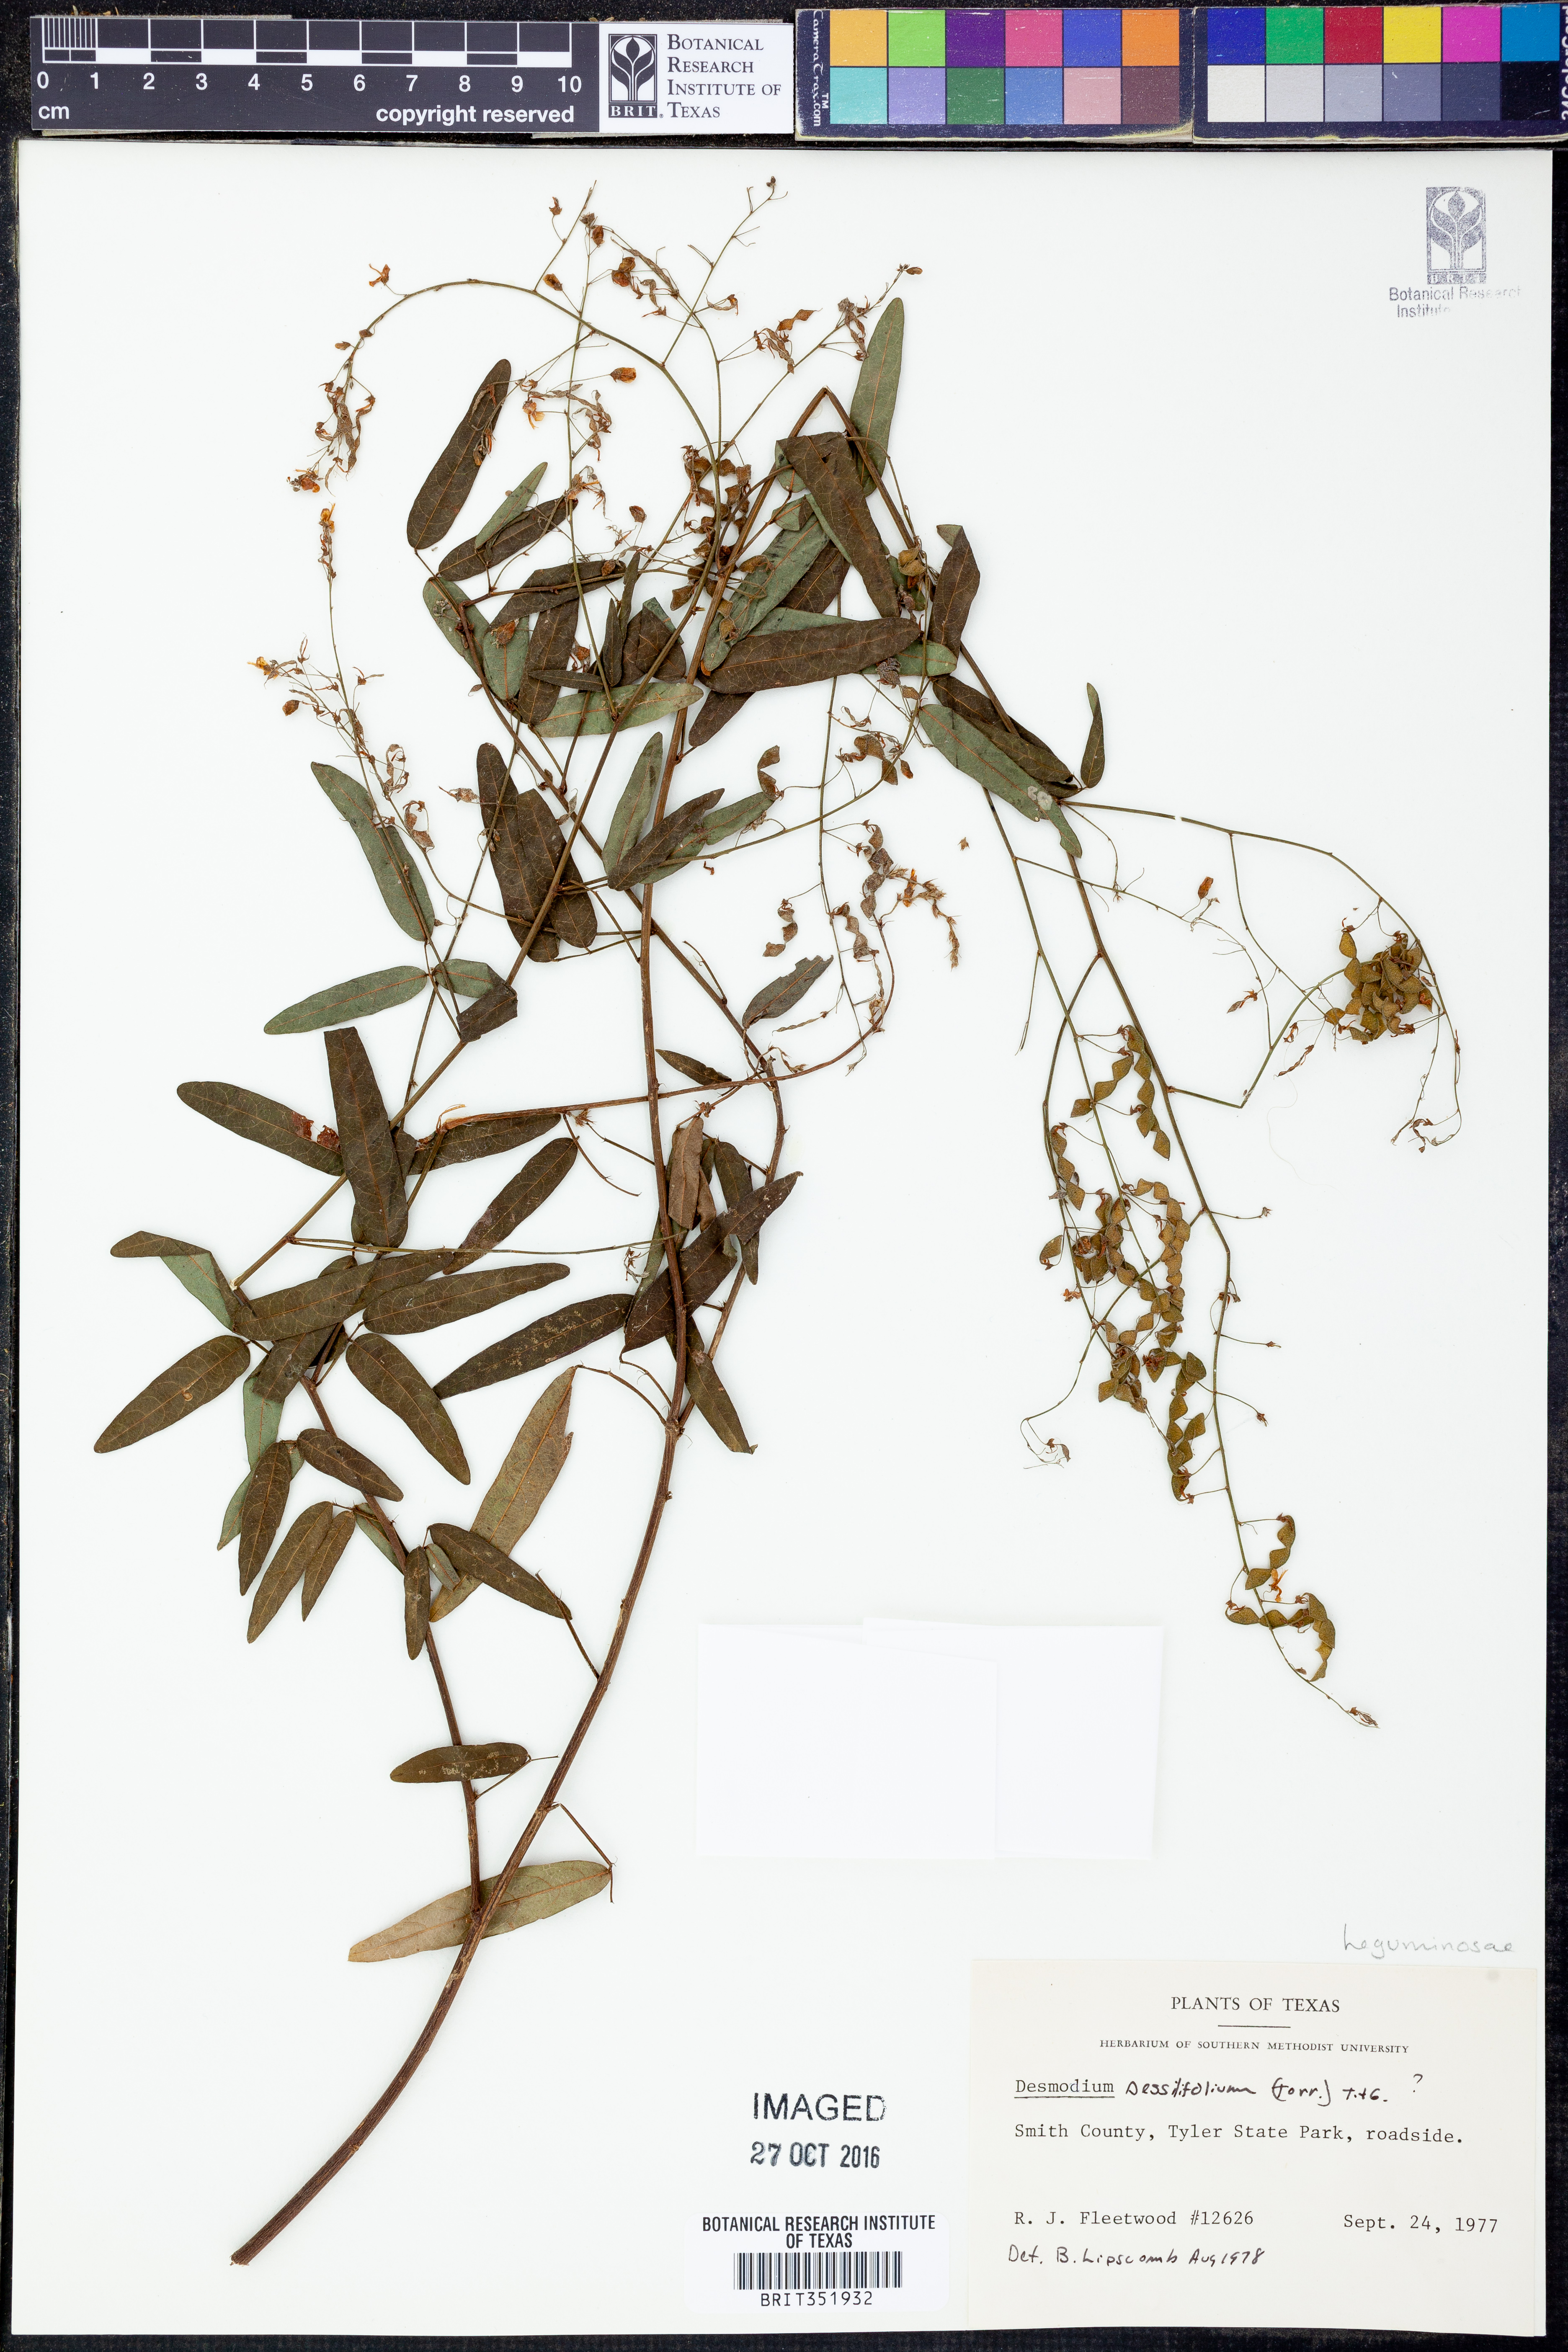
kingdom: Plantae
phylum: Tracheophyta
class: Magnoliopsida
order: Fabales
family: Fabaceae
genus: Desmodium
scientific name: Desmodium sessilifolium
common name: Sessile tick-clover
